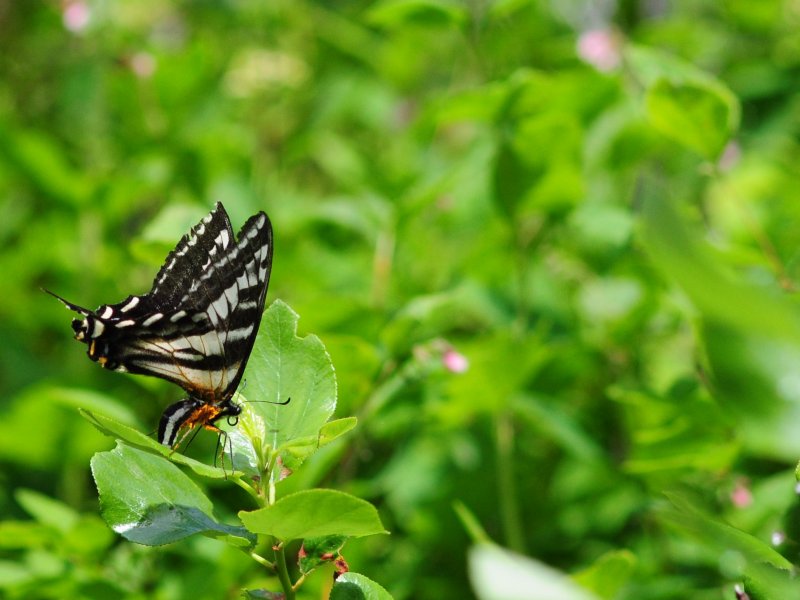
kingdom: Animalia
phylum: Arthropoda
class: Insecta
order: Lepidoptera
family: Papilionidae
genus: Pterourus
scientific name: Pterourus eurymedon
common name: Pale Swallowtail
